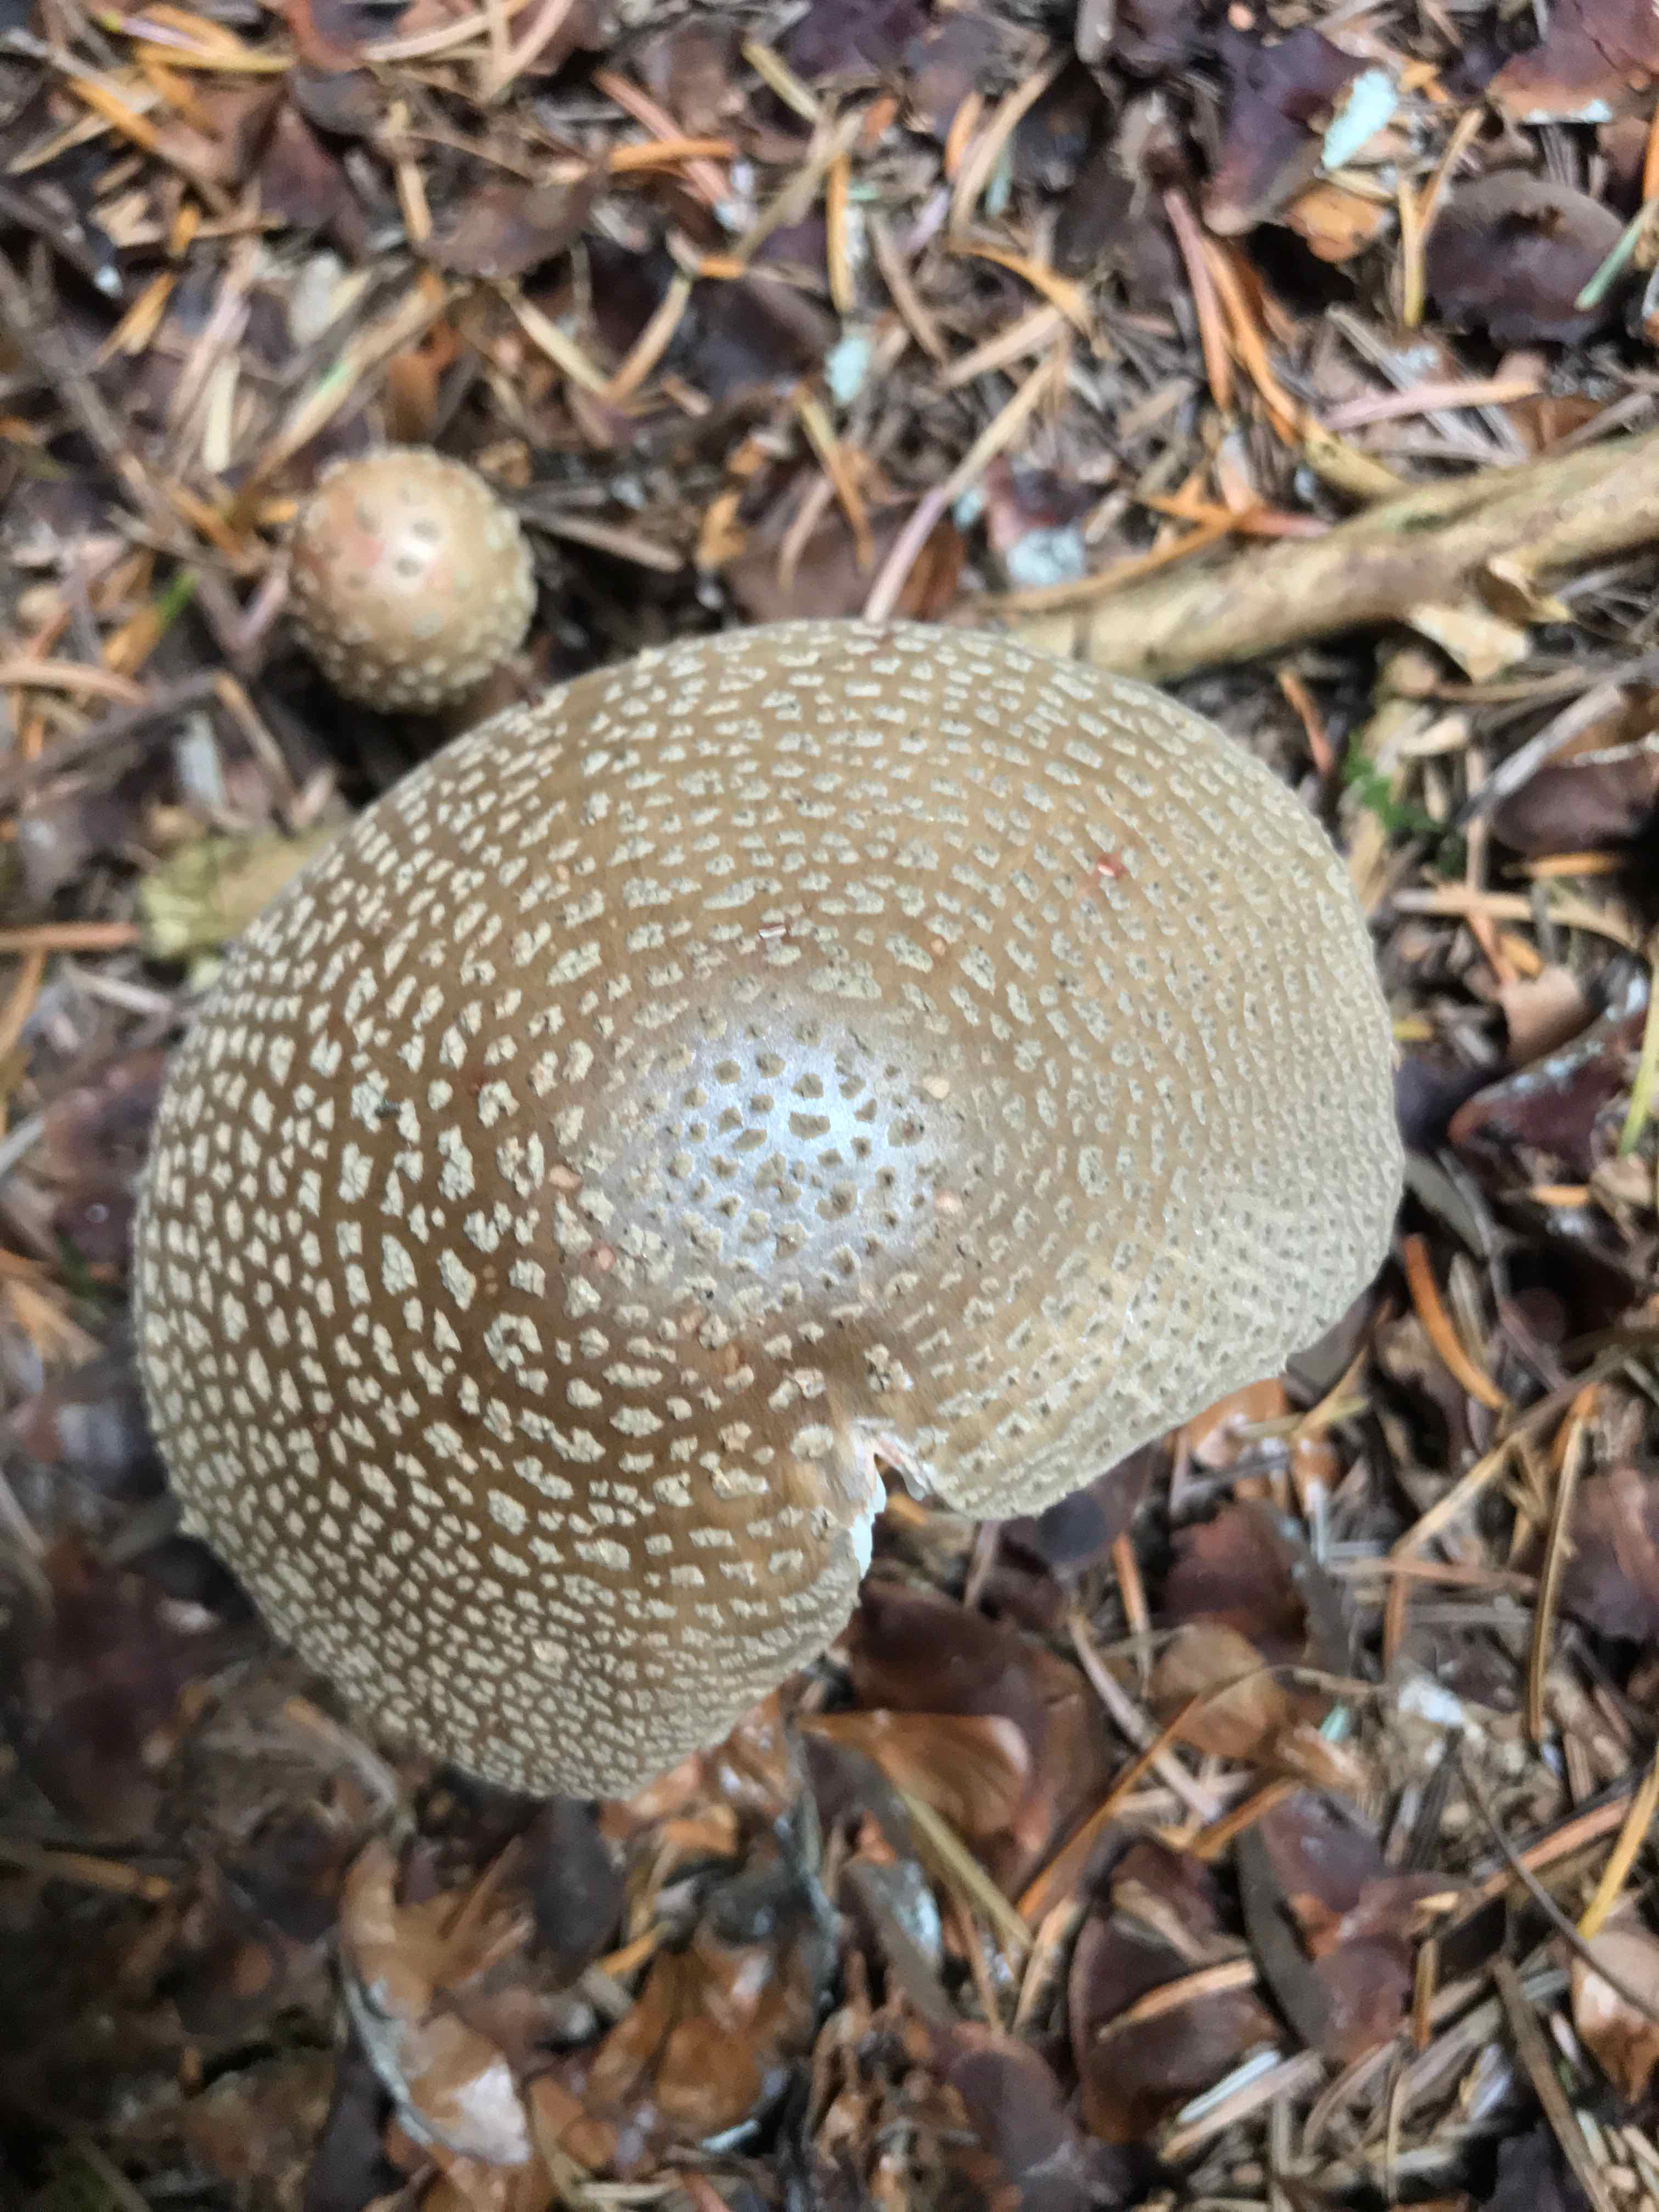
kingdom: Fungi
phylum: Basidiomycota
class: Agaricomycetes
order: Agaricales
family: Amanitaceae
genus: Amanita
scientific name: Amanita
